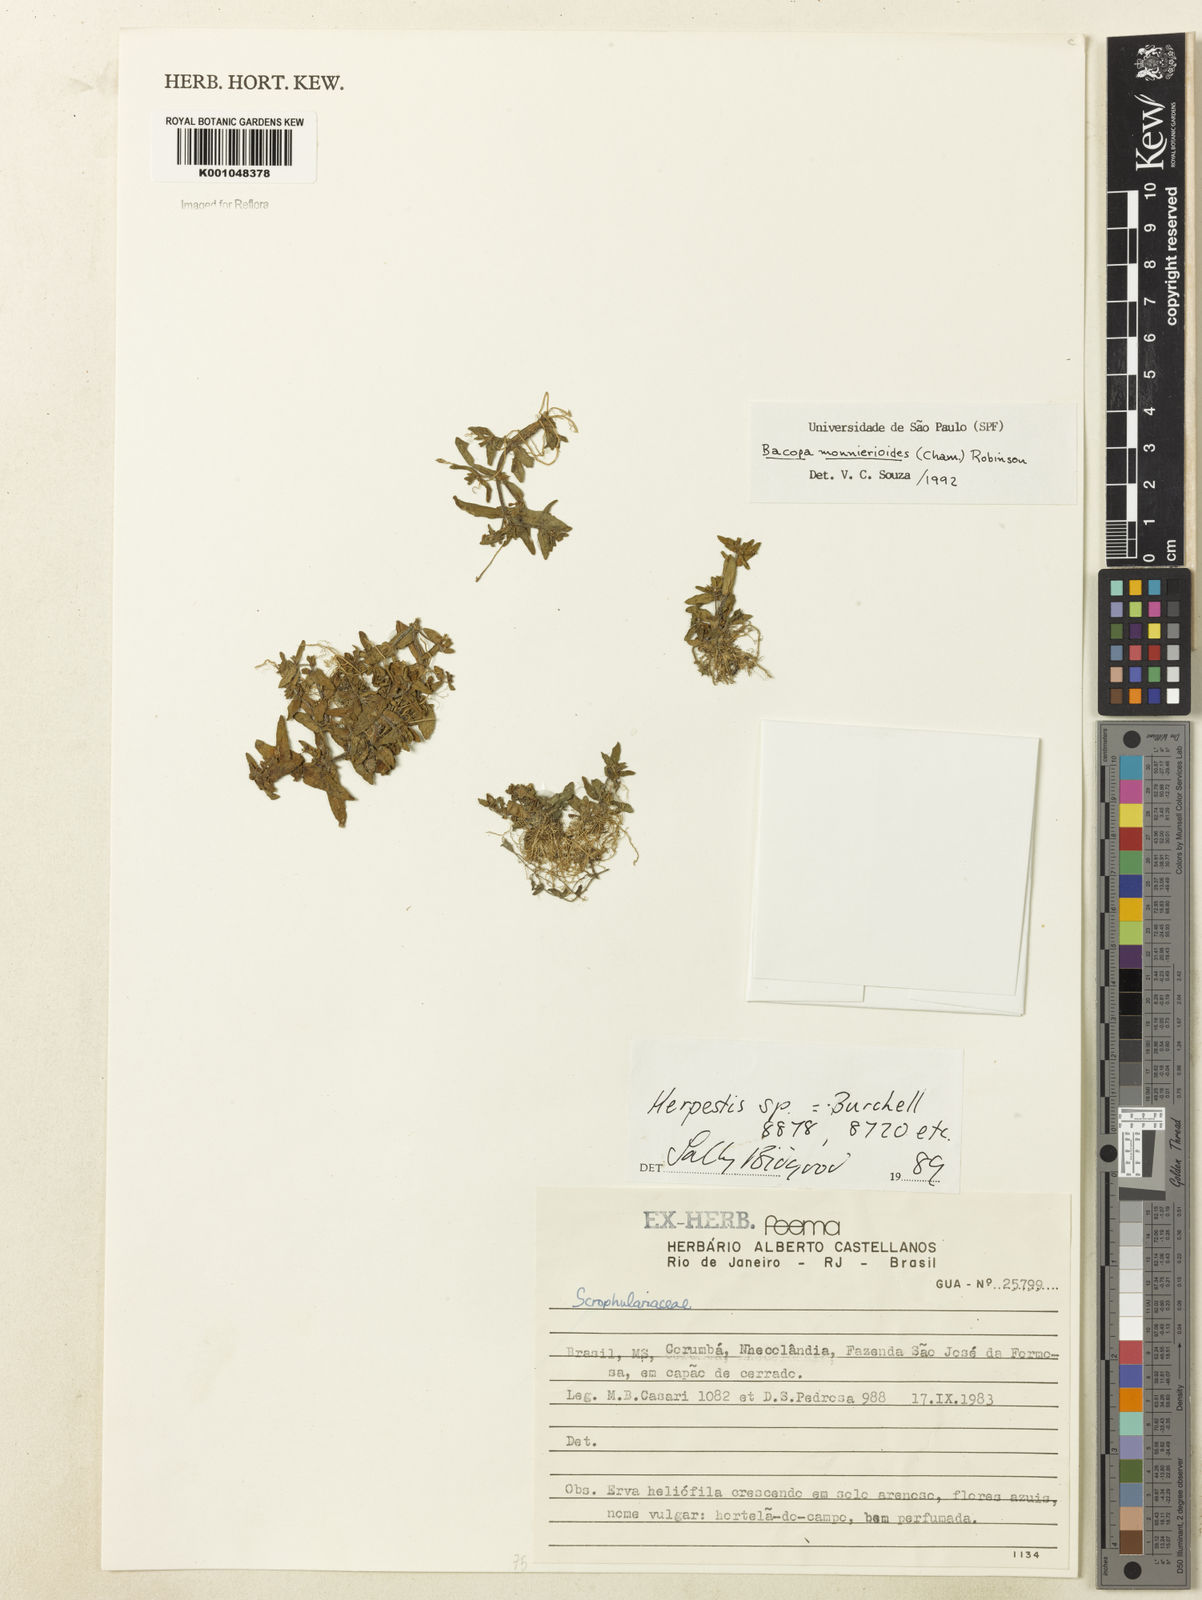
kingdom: Plantae
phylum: Tracheophyta
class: Magnoliopsida
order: Lamiales
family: Plantaginaceae
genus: Bacopa
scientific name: Bacopa monnierioides
